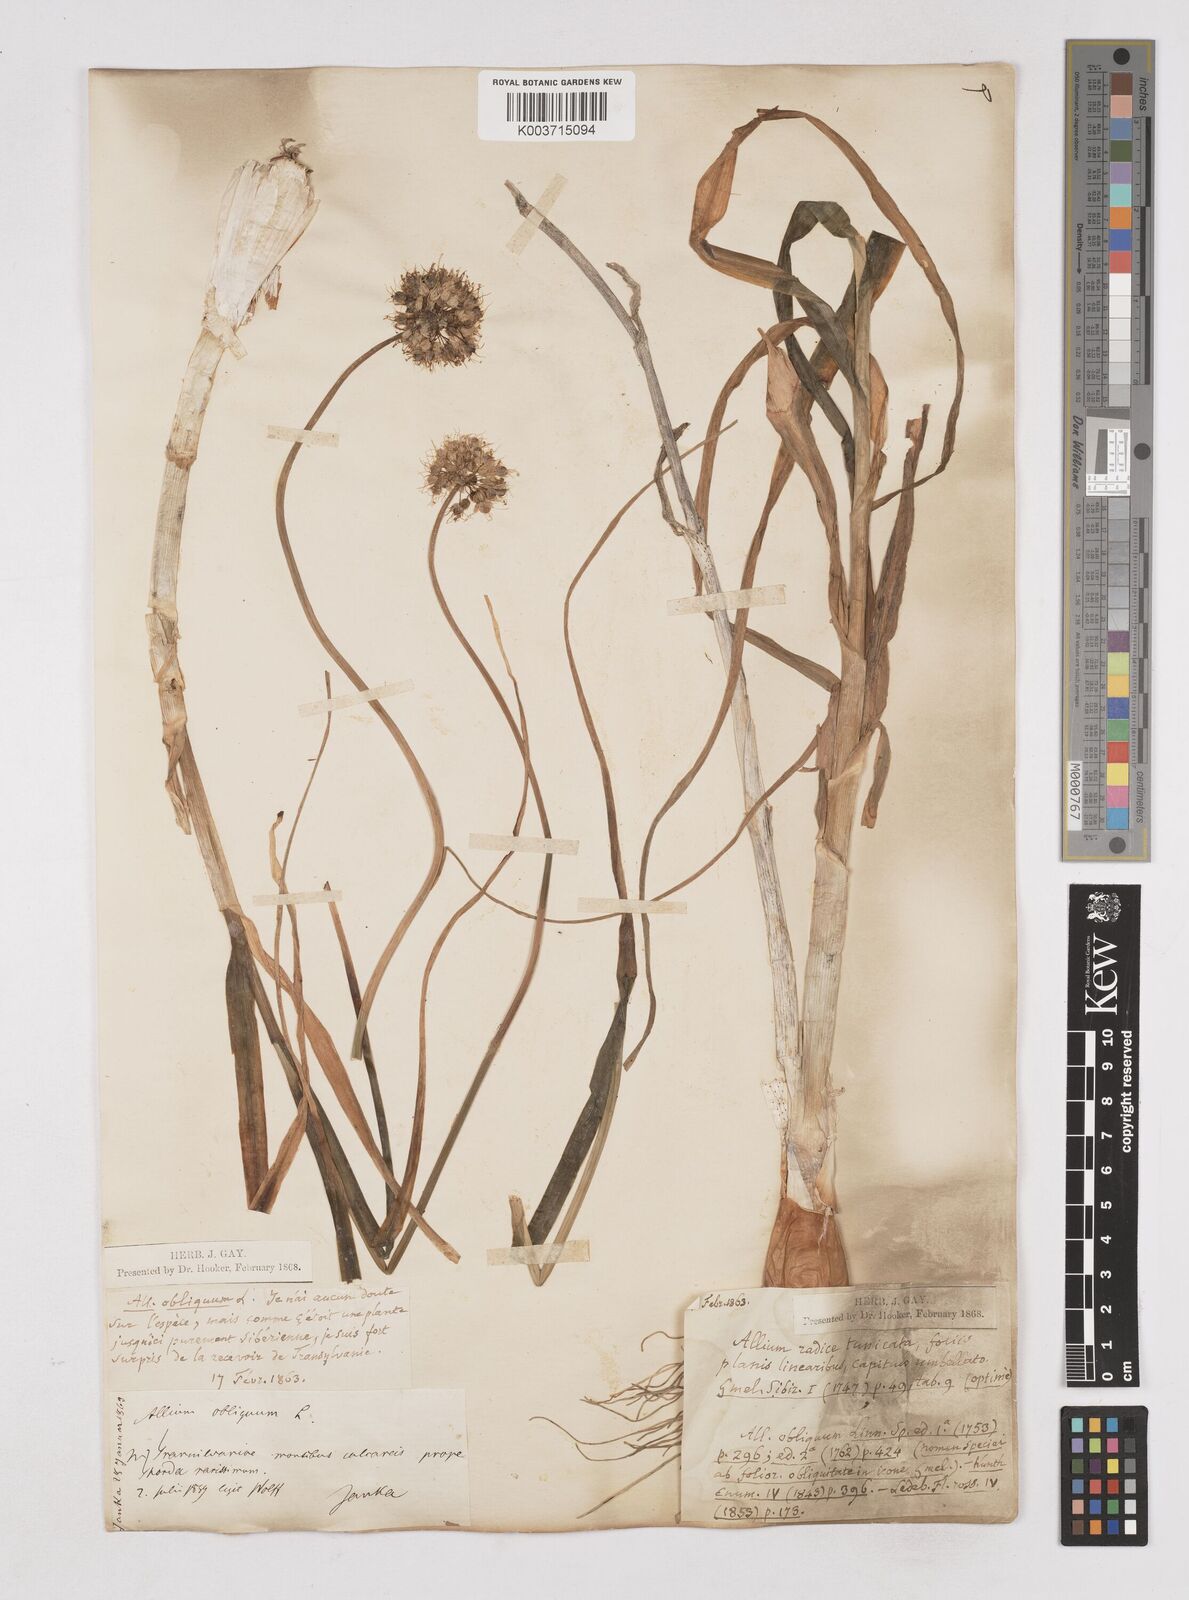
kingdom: Plantae
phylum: Tracheophyta
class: Liliopsida
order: Asparagales
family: Amaryllidaceae
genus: Allium
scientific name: Allium obliquum
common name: Oblique onion
